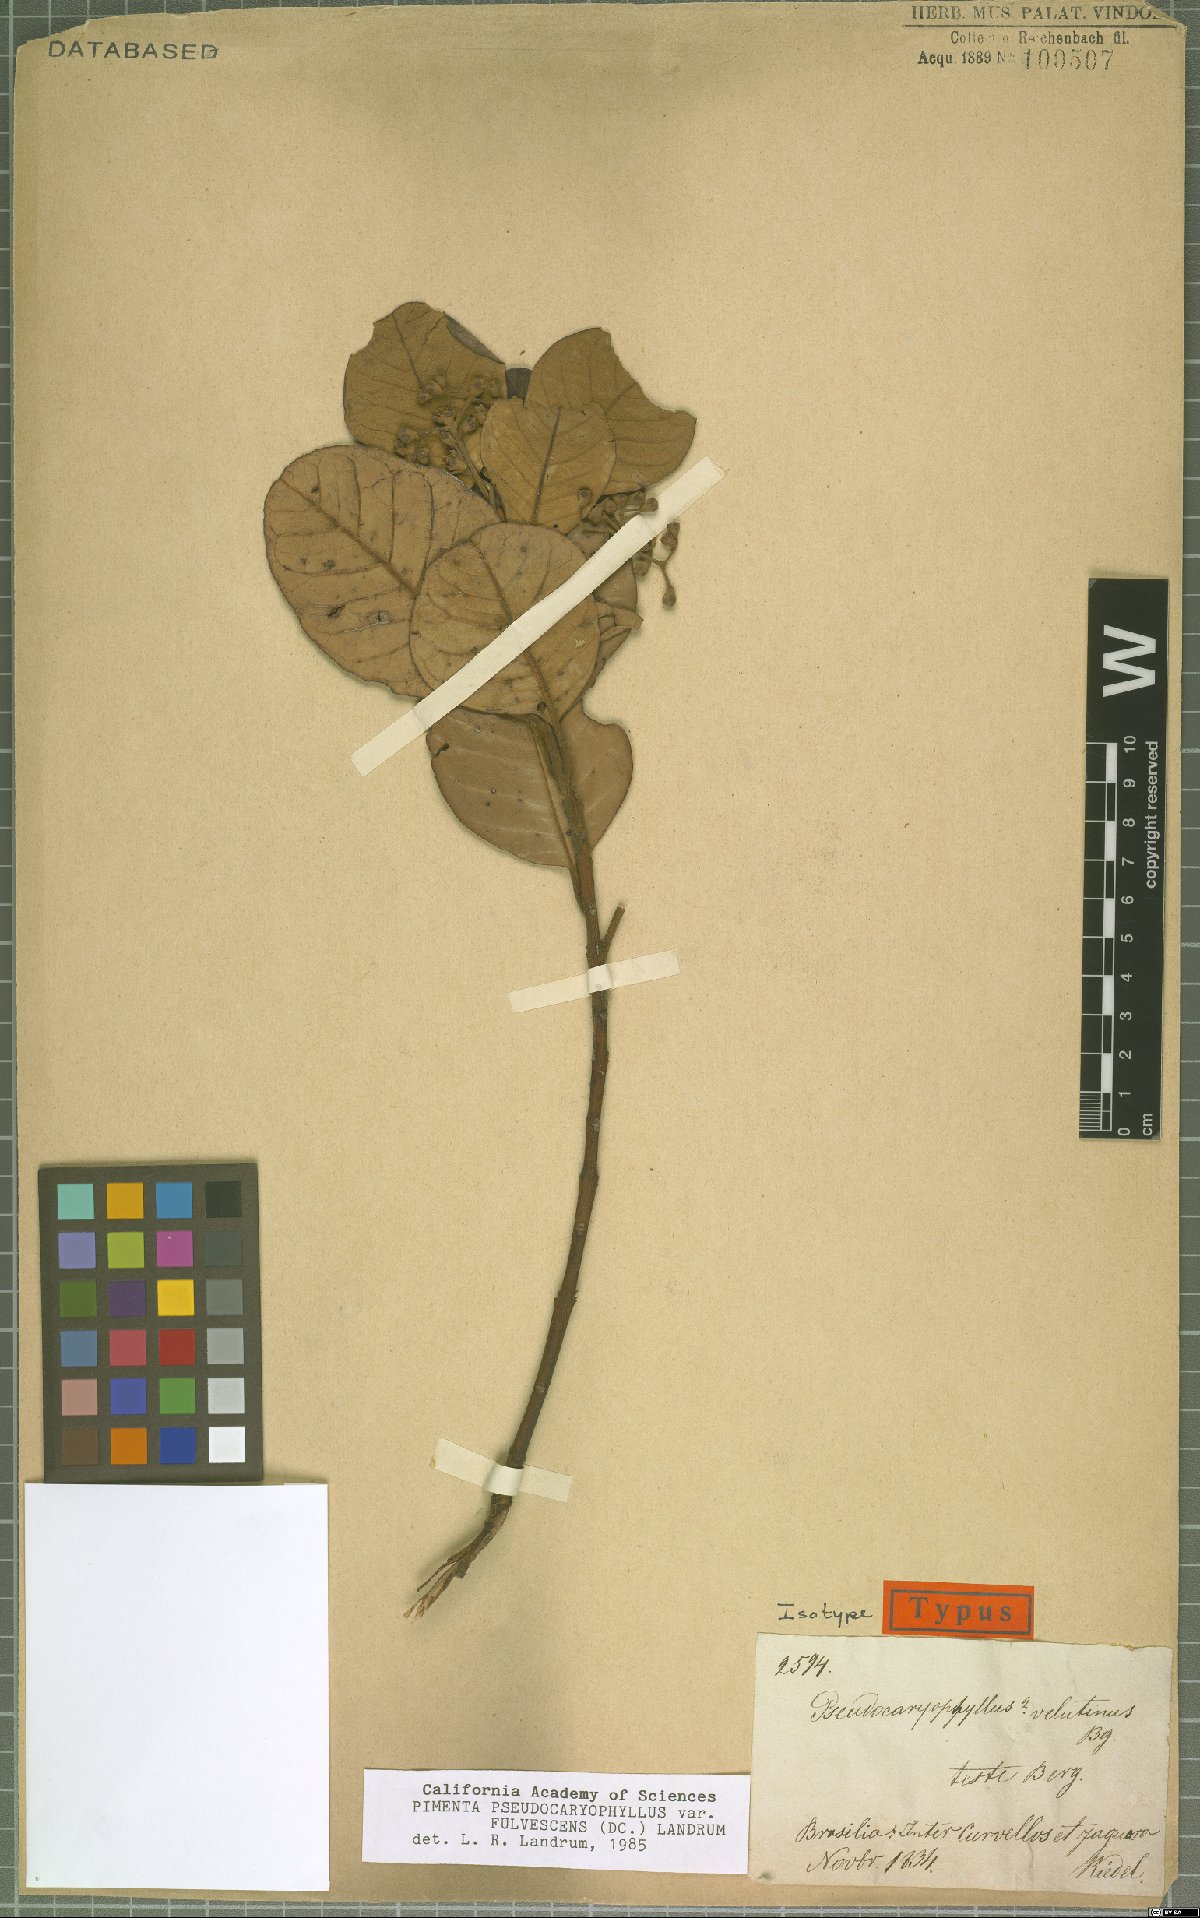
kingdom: Plantae
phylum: Tracheophyta
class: Magnoliopsida
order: Myrtales
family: Myrtaceae
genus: Pimenta
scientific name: Pimenta pseudocaryophyllus
